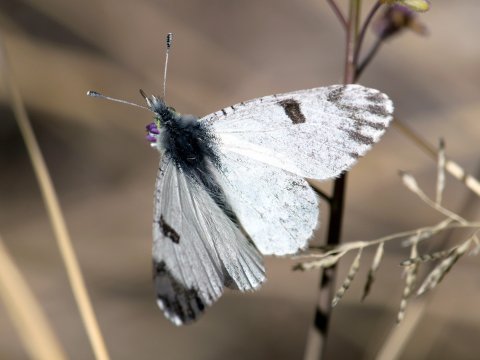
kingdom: Animalia
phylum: Arthropoda
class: Insecta
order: Lepidoptera
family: Pieridae
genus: Euchloe
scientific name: Euchloe lotta
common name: Desert Marble
